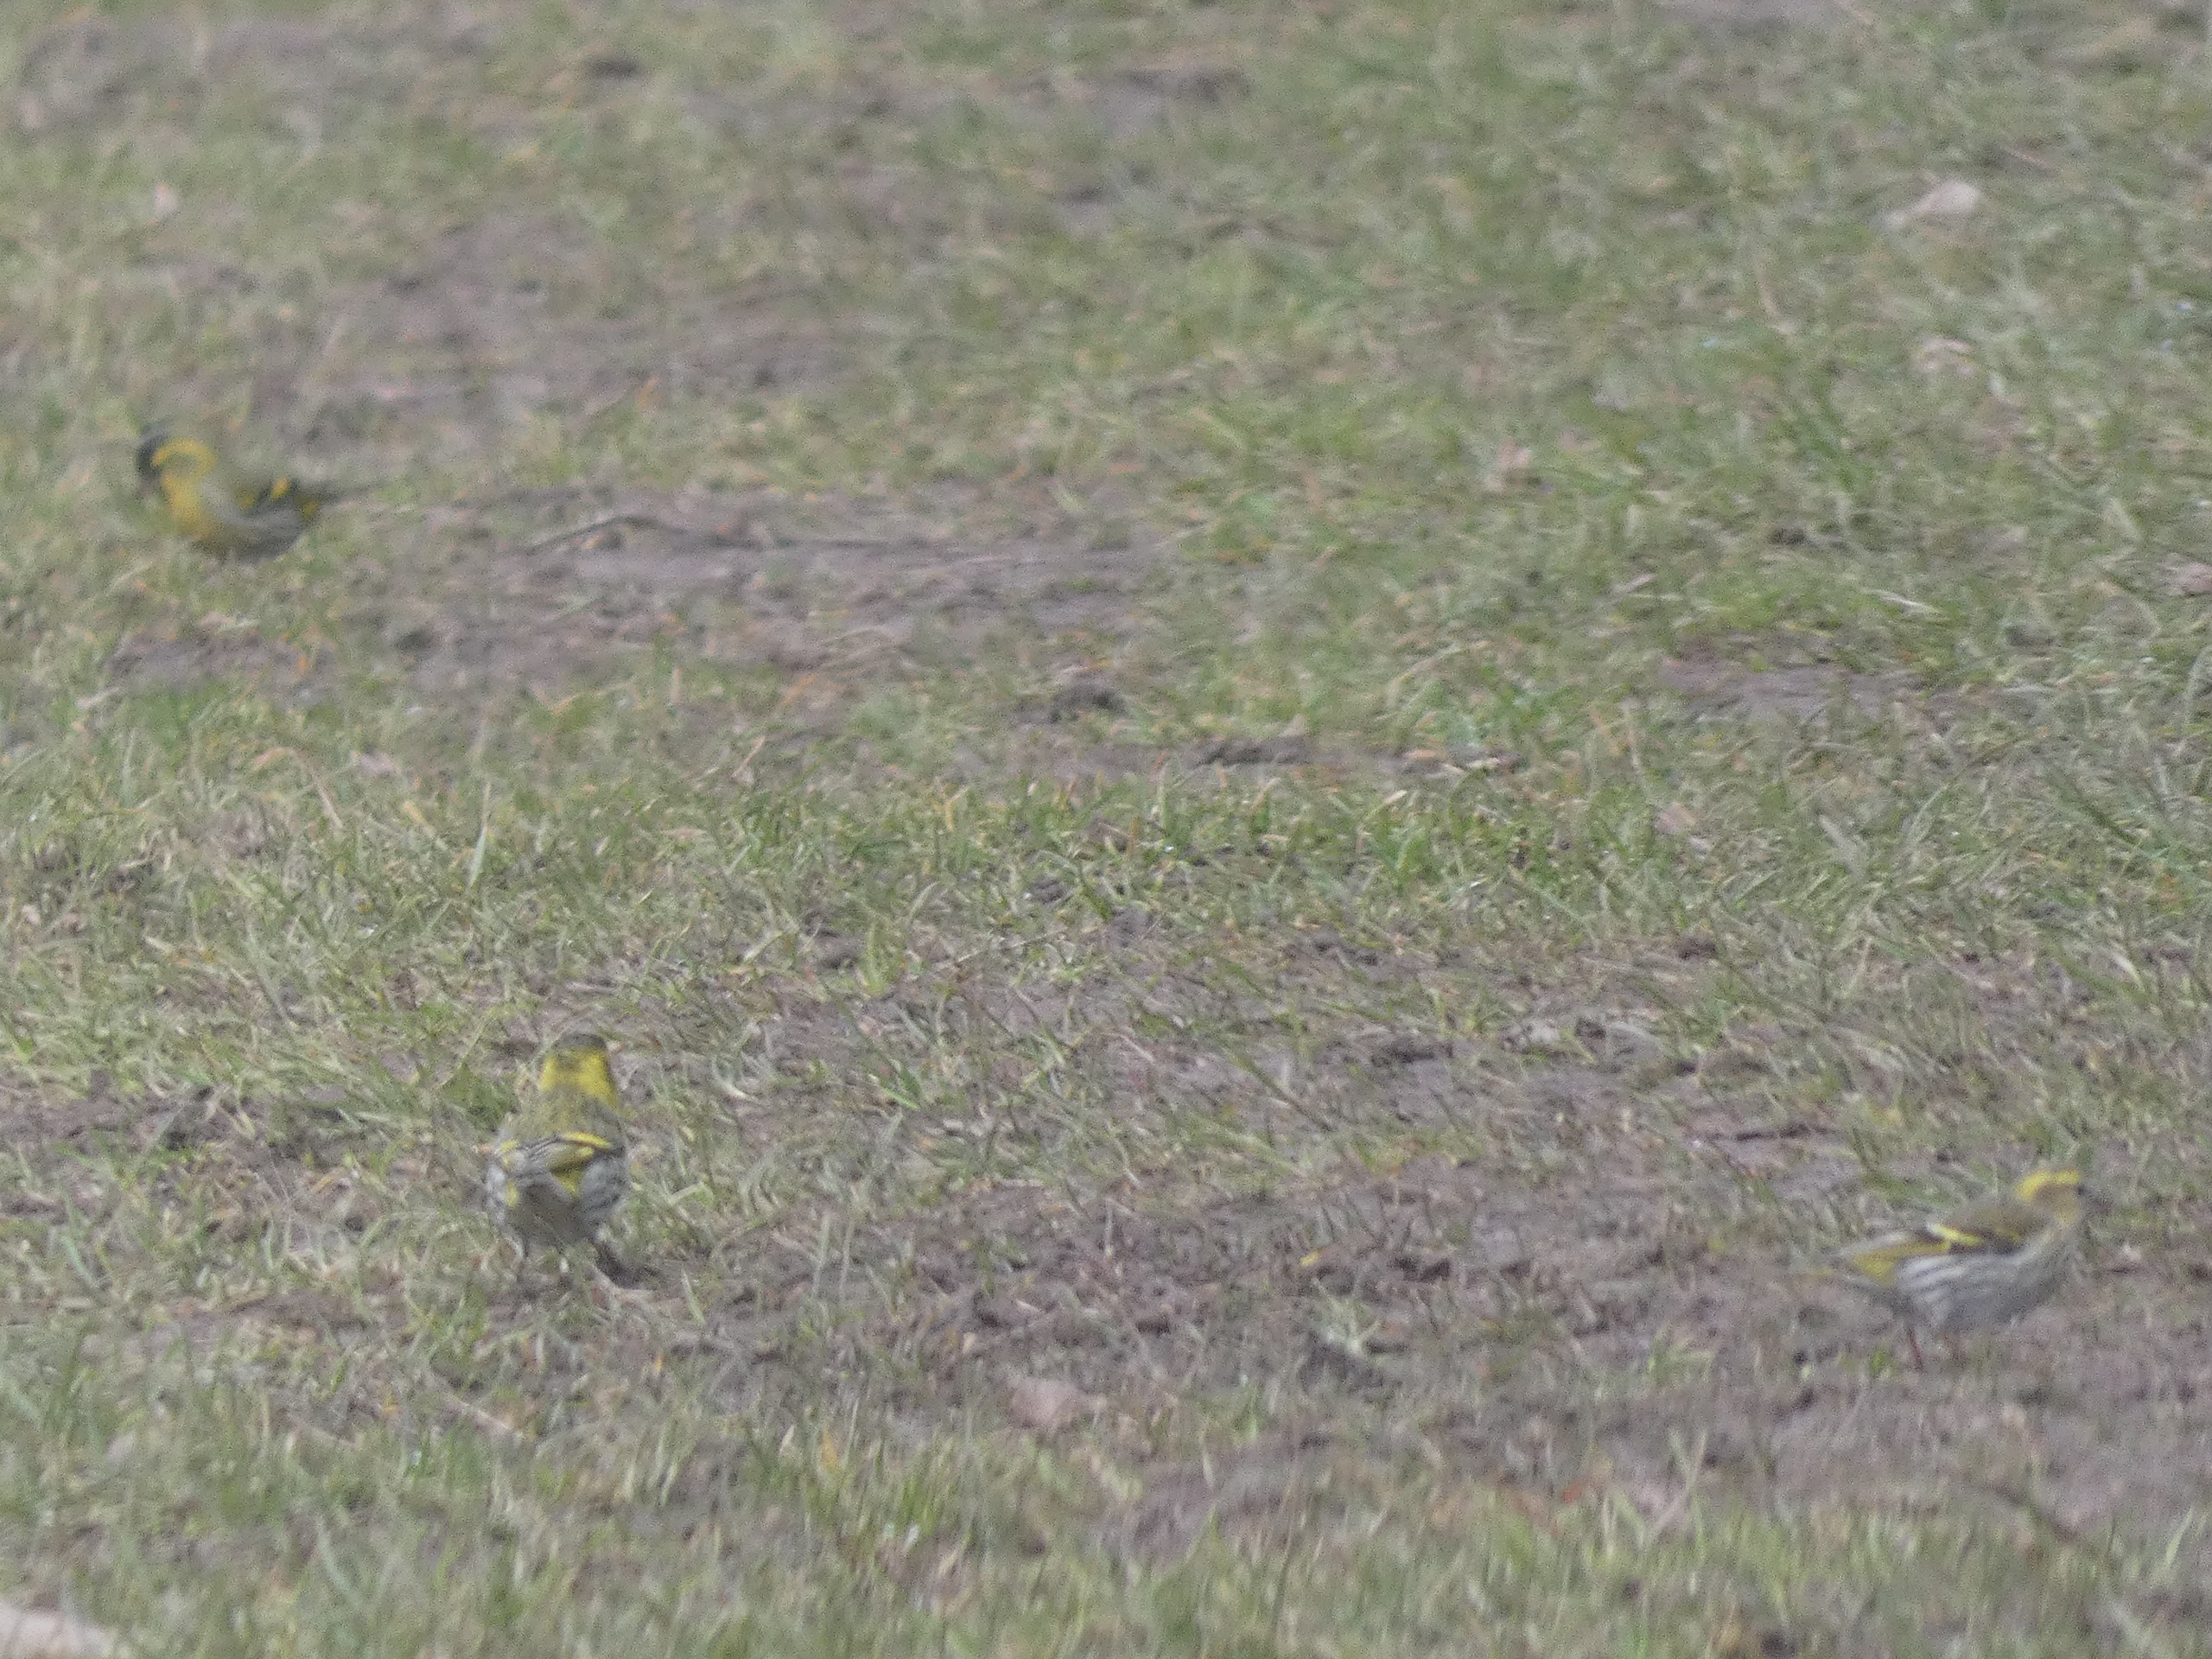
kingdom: Animalia
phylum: Chordata
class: Aves
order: Passeriformes
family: Fringillidae
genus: Spinus
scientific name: Spinus spinus
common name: Grønsisken
